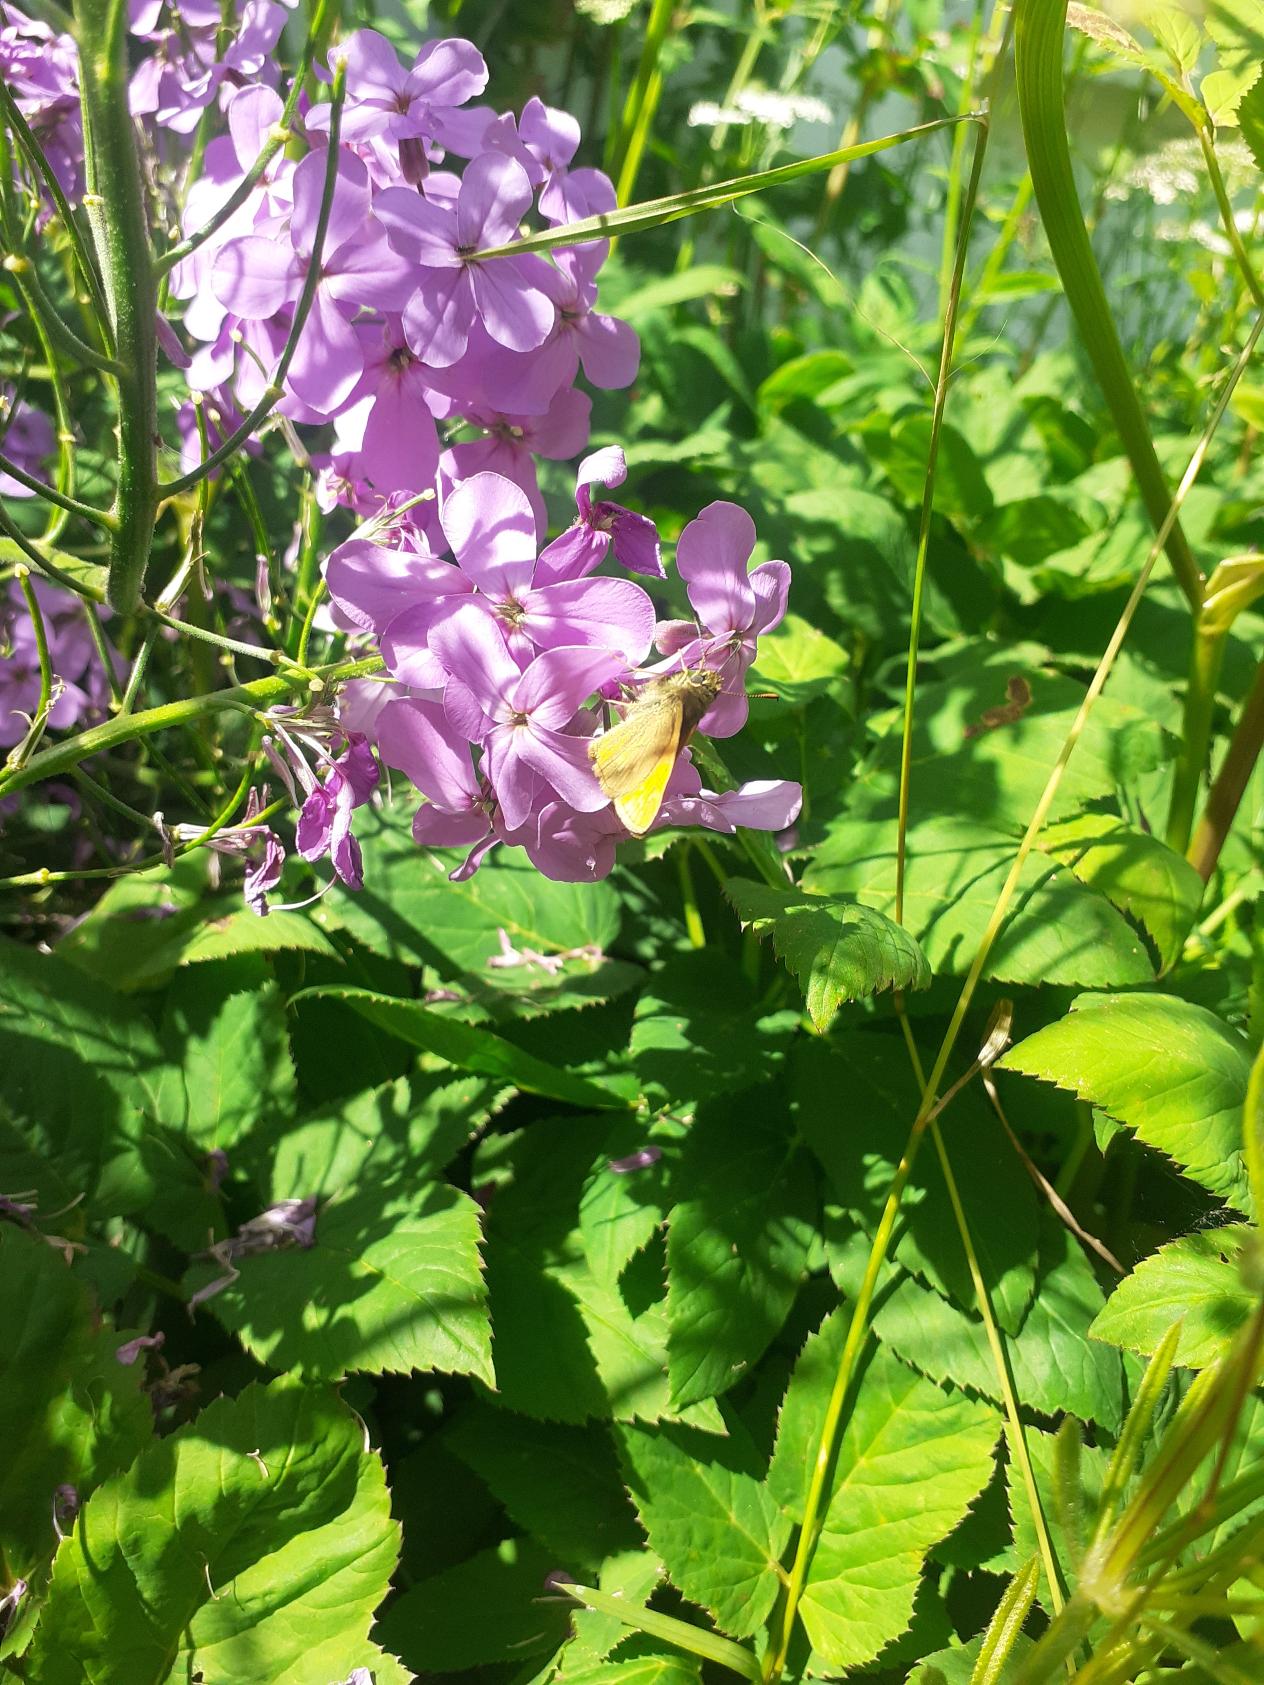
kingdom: Animalia
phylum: Arthropoda
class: Insecta
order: Lepidoptera
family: Hesperiidae
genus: Ochlodes
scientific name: Ochlodes venata
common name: Stor bredpande
